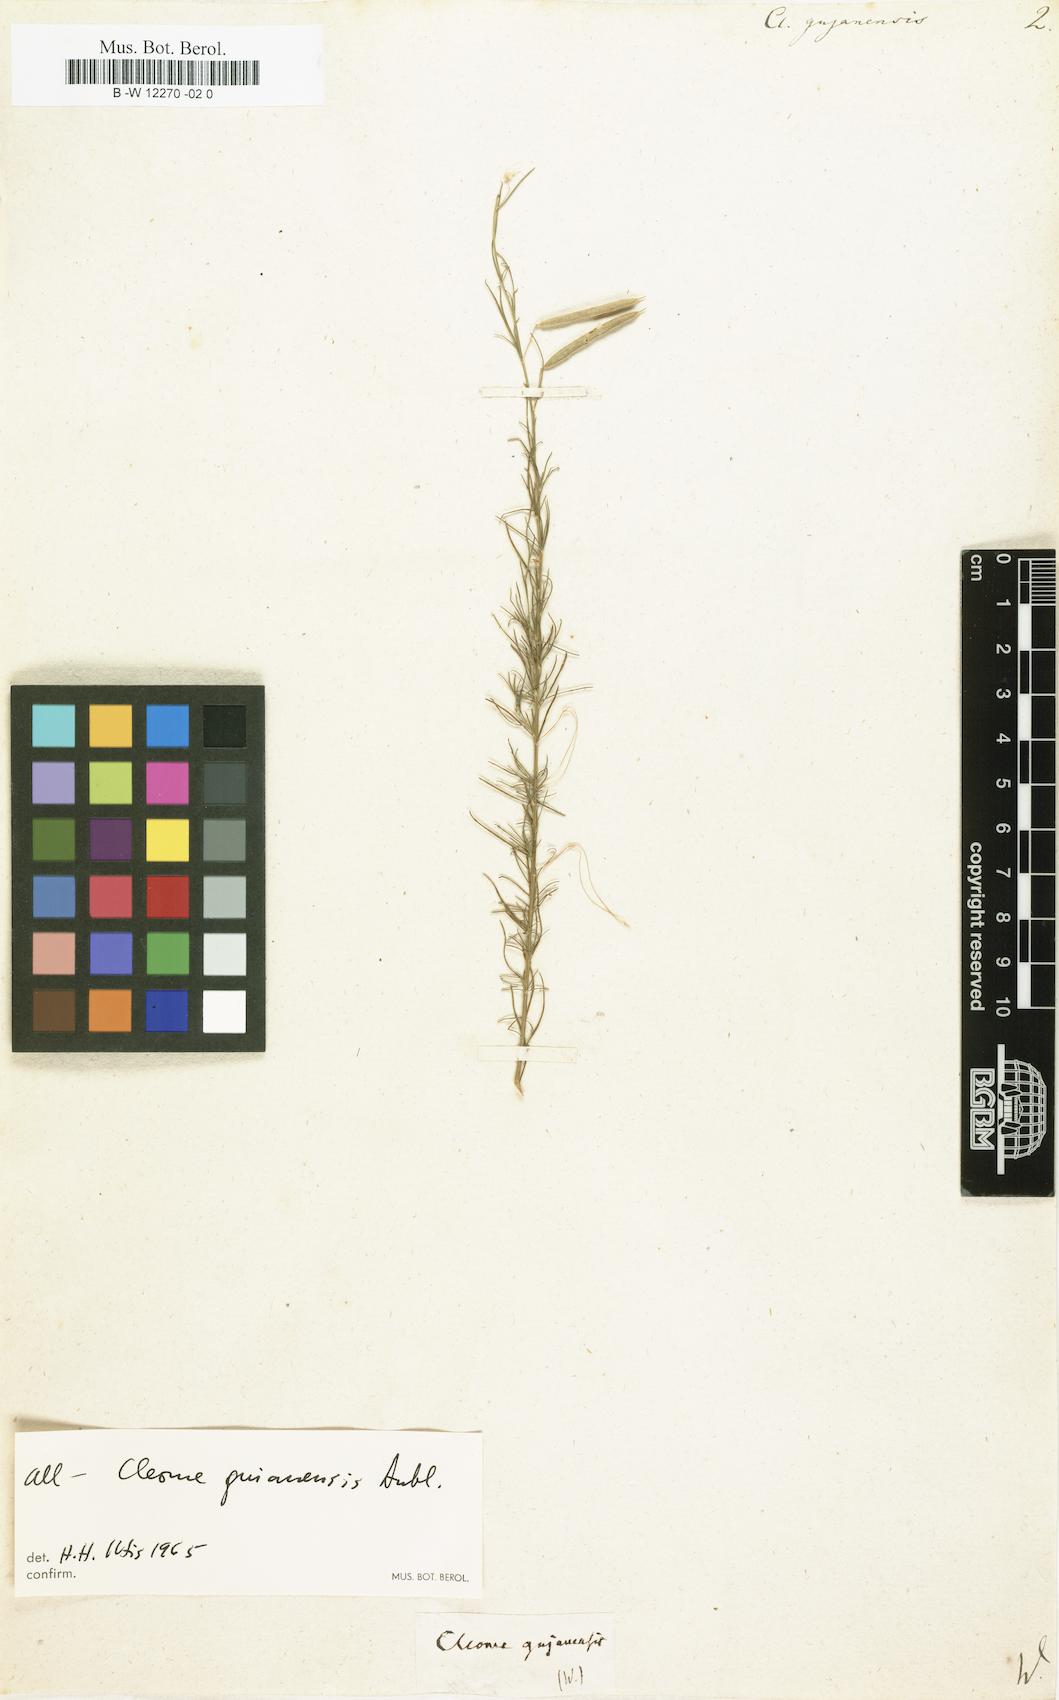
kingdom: Plantae
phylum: Tracheophyta
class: Magnoliopsida
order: Brassicales
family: Cleomaceae
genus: Physostemon
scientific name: Physostemon guianensis
